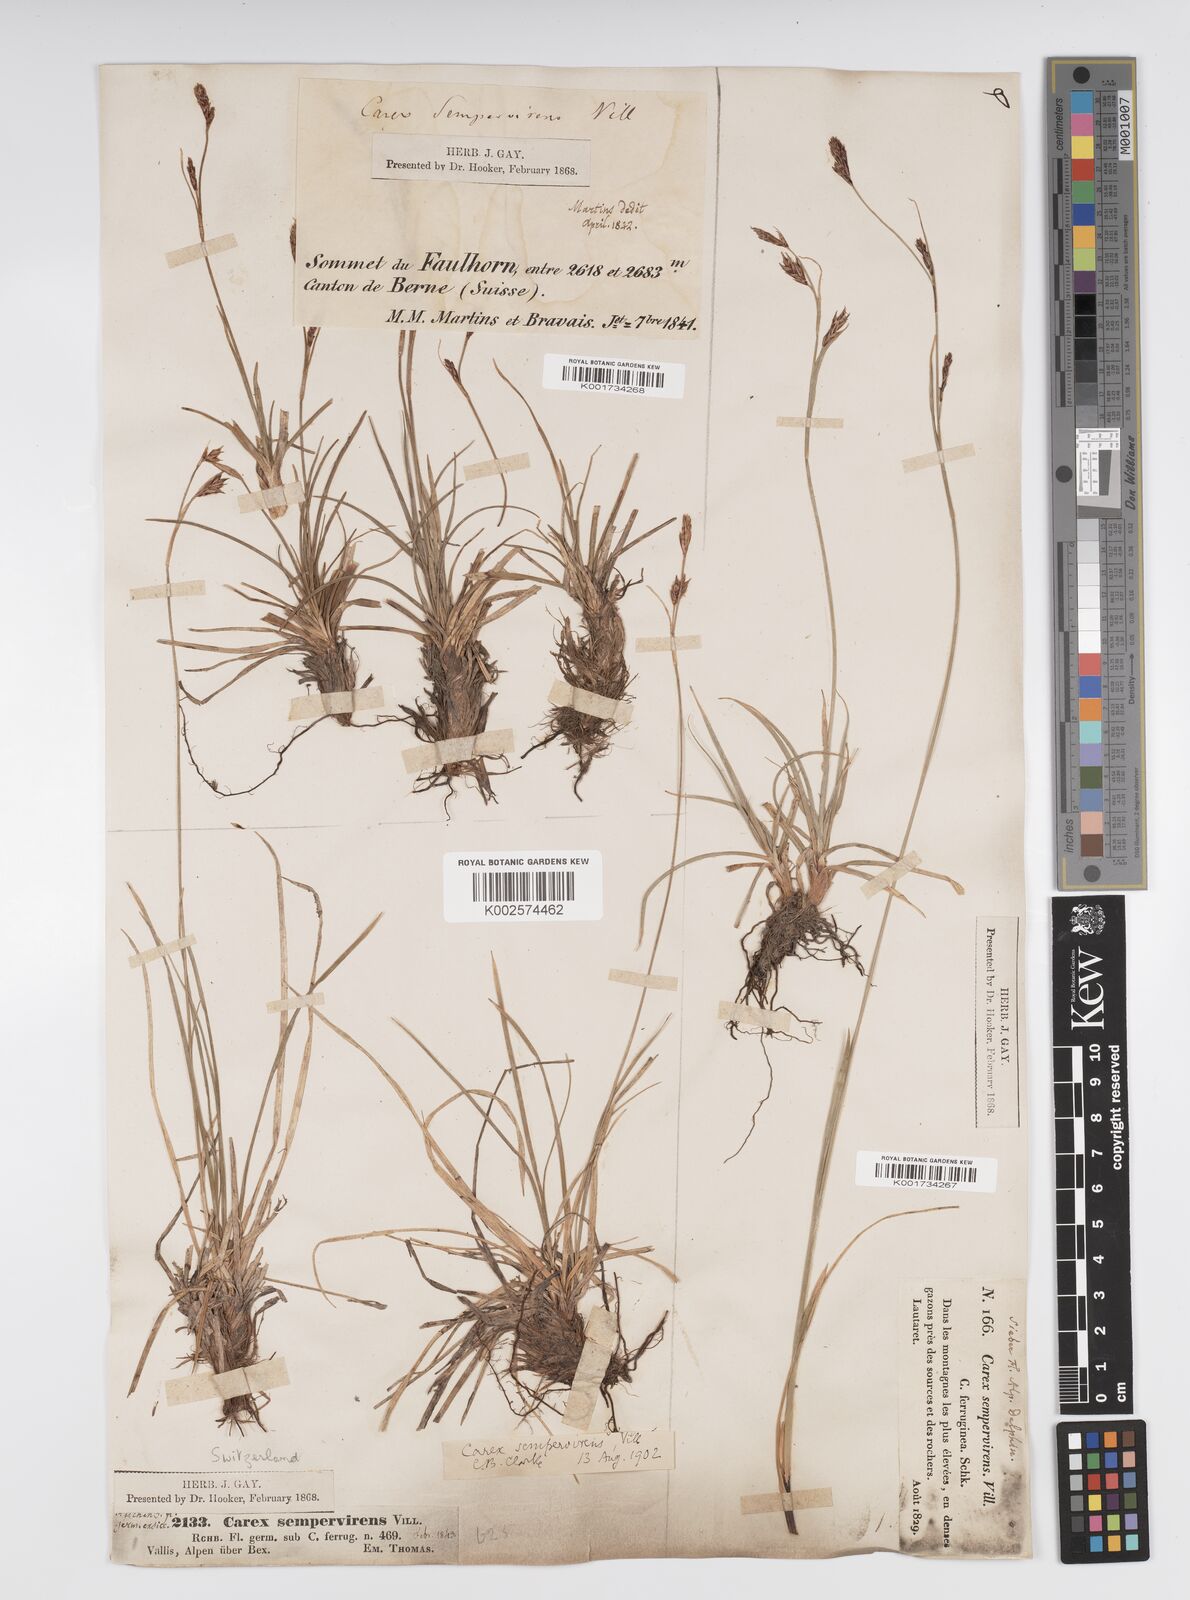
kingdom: Plantae
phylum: Tracheophyta
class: Liliopsida
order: Poales
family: Cyperaceae
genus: Carex
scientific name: Carex sempervirens
